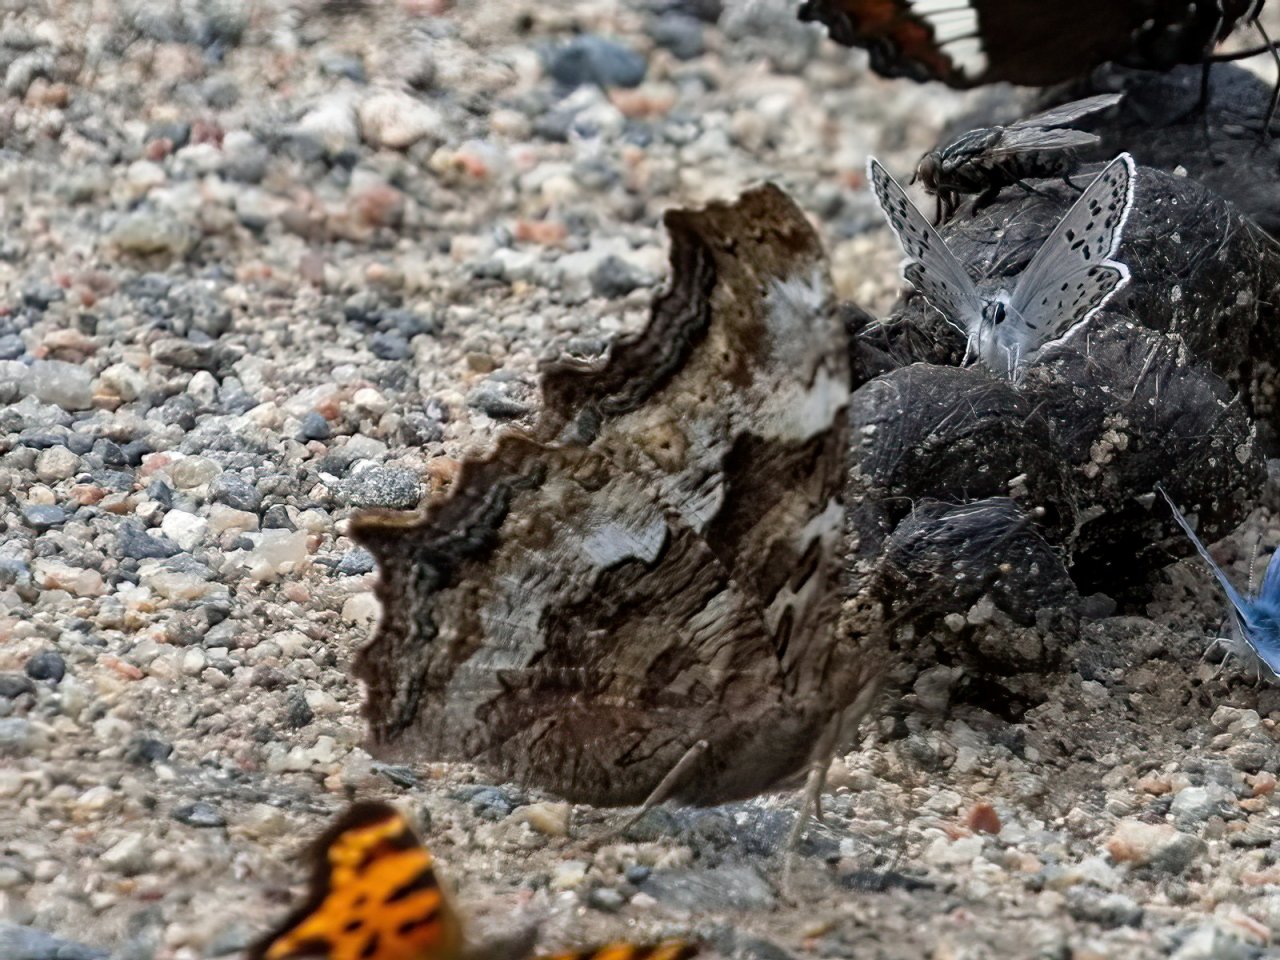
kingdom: Animalia
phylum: Arthropoda
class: Insecta
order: Lepidoptera
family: Nymphalidae
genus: Polygonia
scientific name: Polygonia vaualbum
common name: Compton Tortoiseshell
